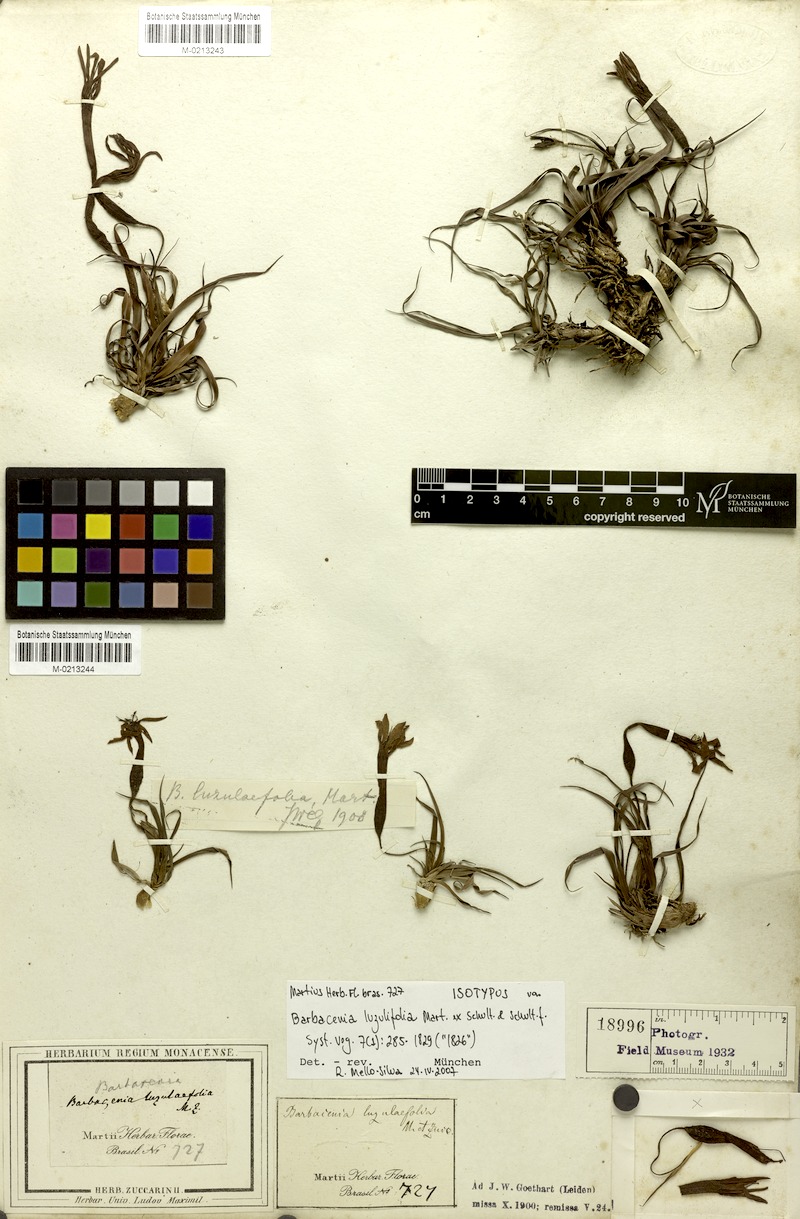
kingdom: Plantae
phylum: Tracheophyta
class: Liliopsida
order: Pandanales
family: Velloziaceae
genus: Barbacenia
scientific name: Barbacenia luzulifolia
